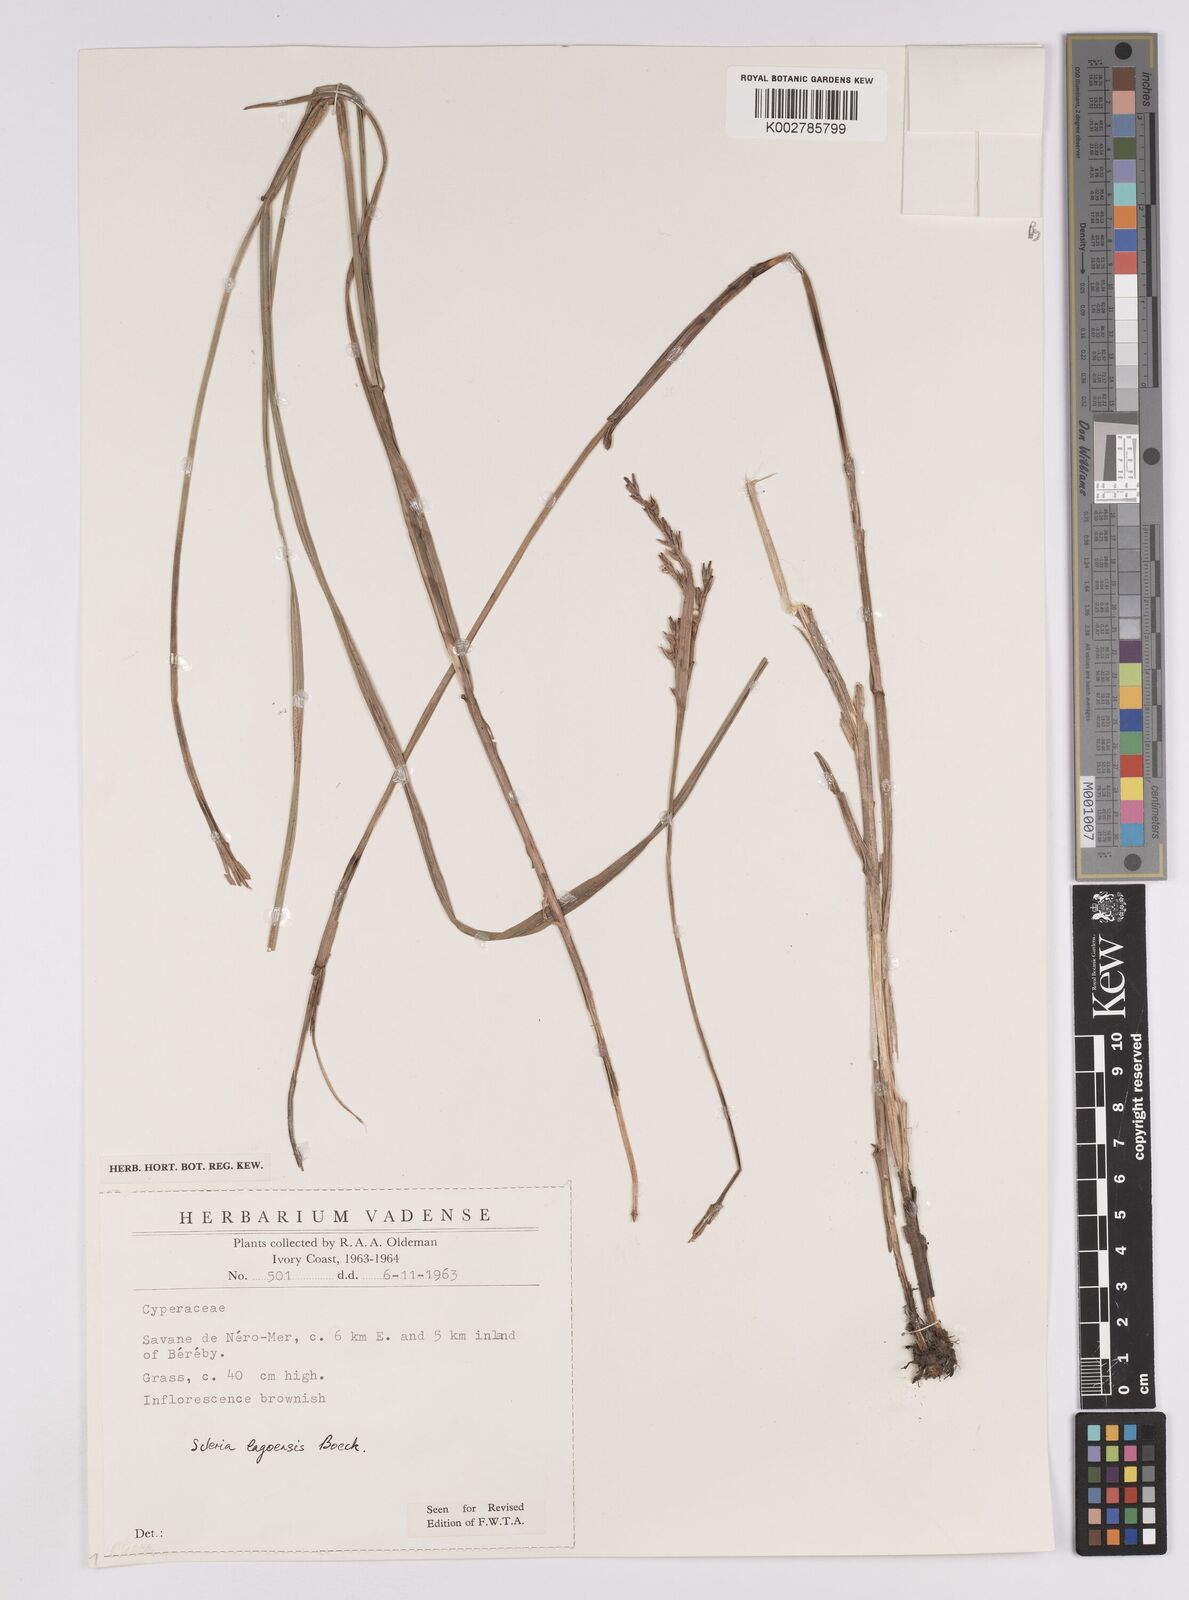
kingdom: Plantae
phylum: Tracheophyta
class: Liliopsida
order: Poales
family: Cyperaceae
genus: Scleria
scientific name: Scleria lagoensis
